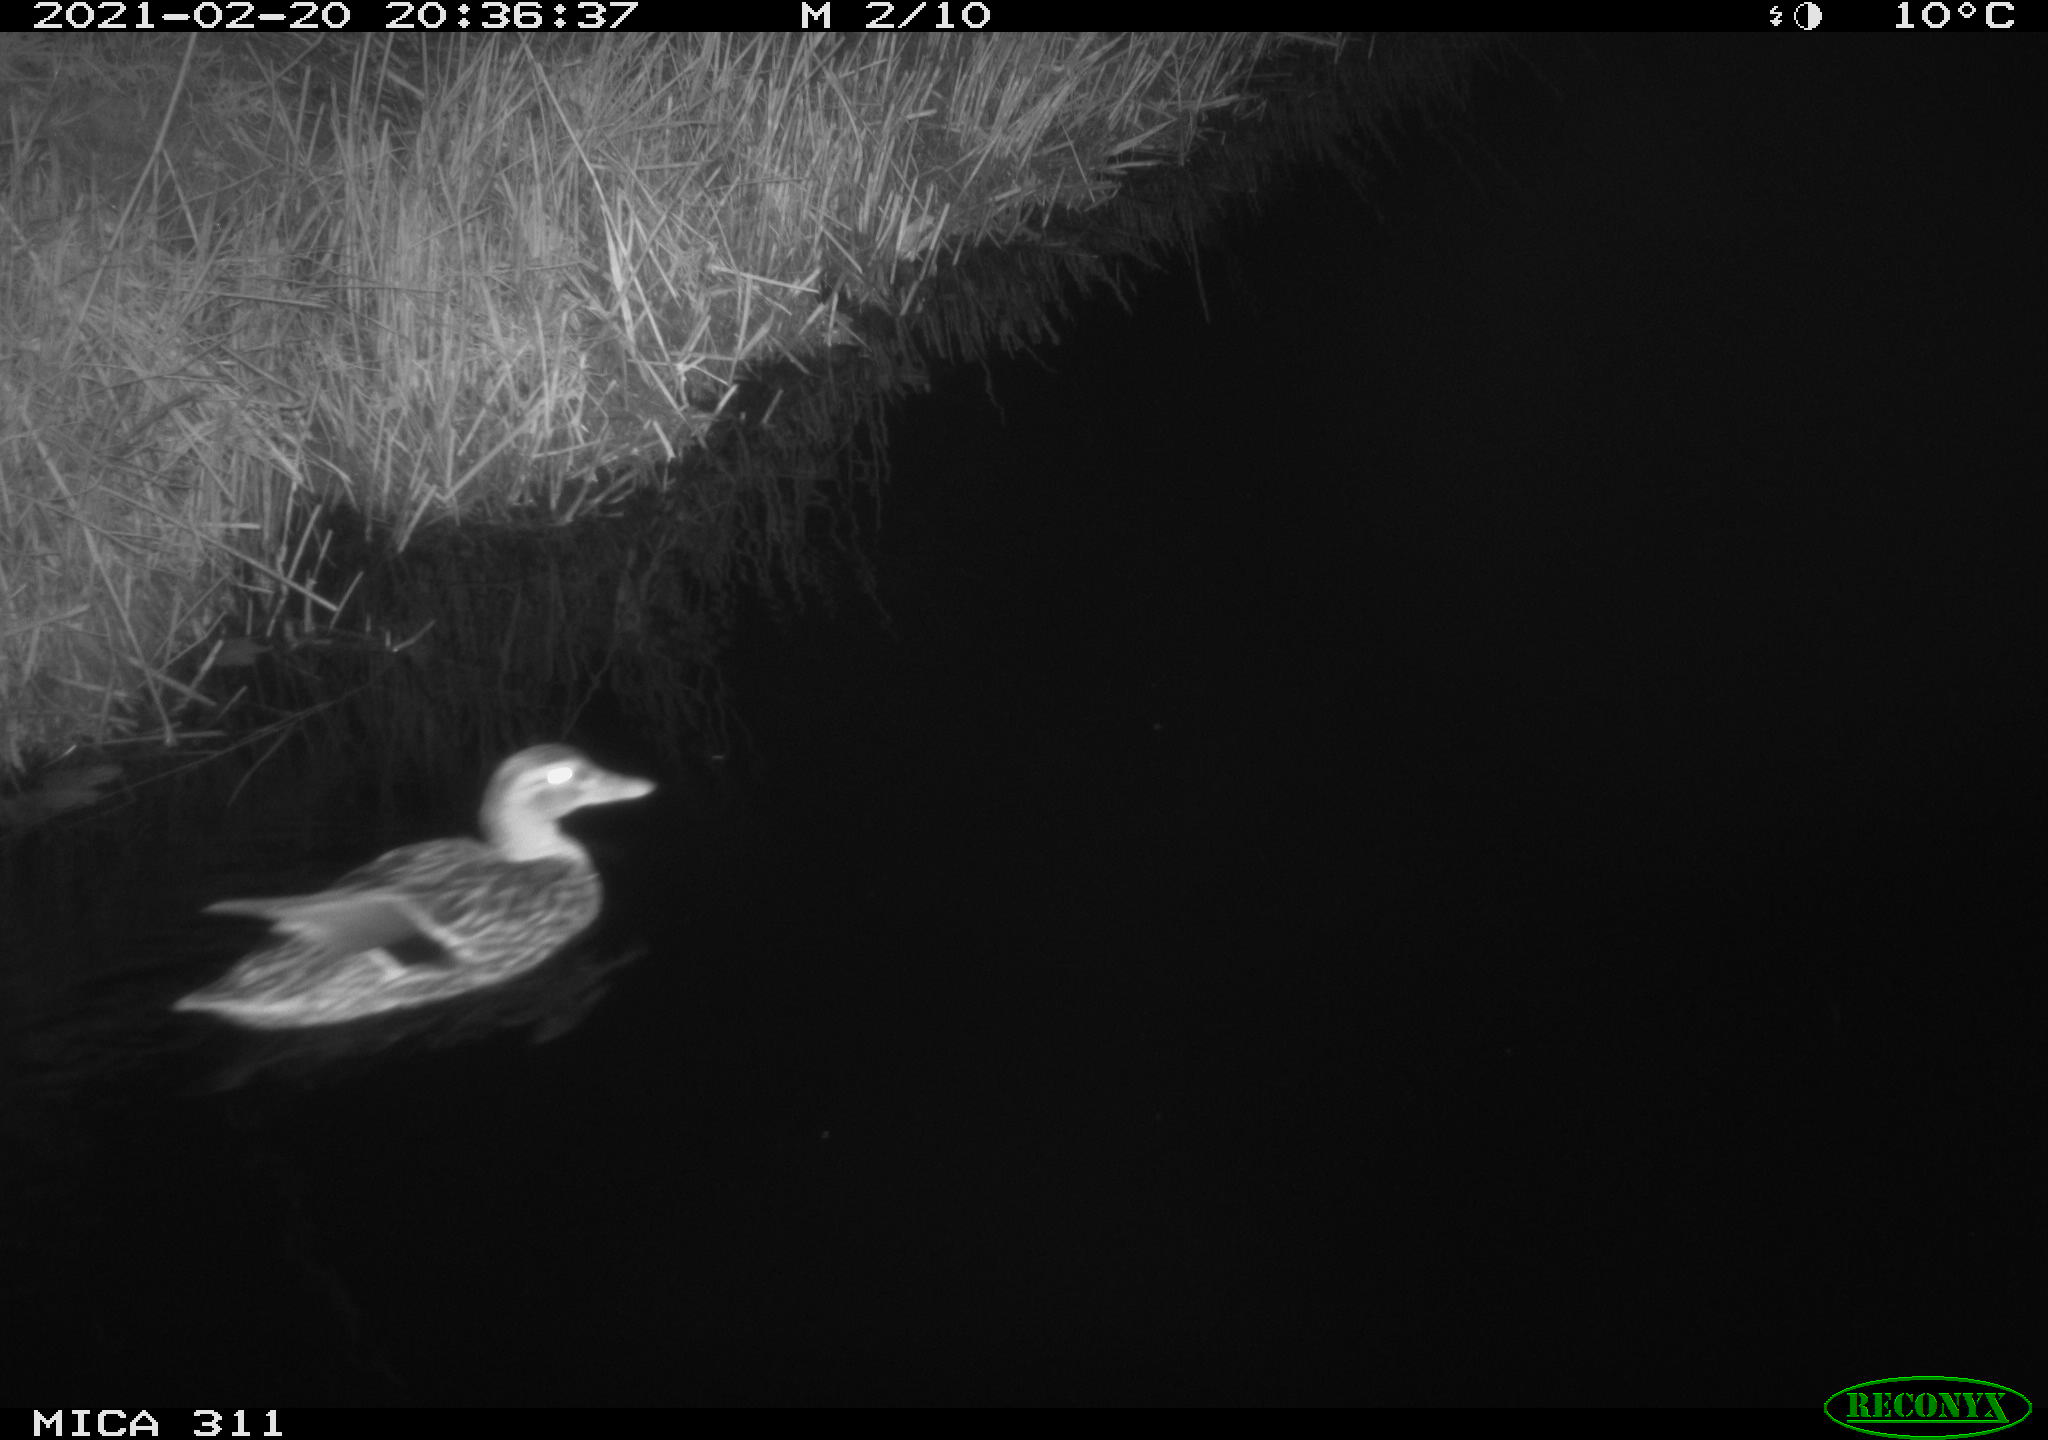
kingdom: Animalia
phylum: Chordata
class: Aves
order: Anseriformes
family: Anatidae
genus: Anas
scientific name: Anas
